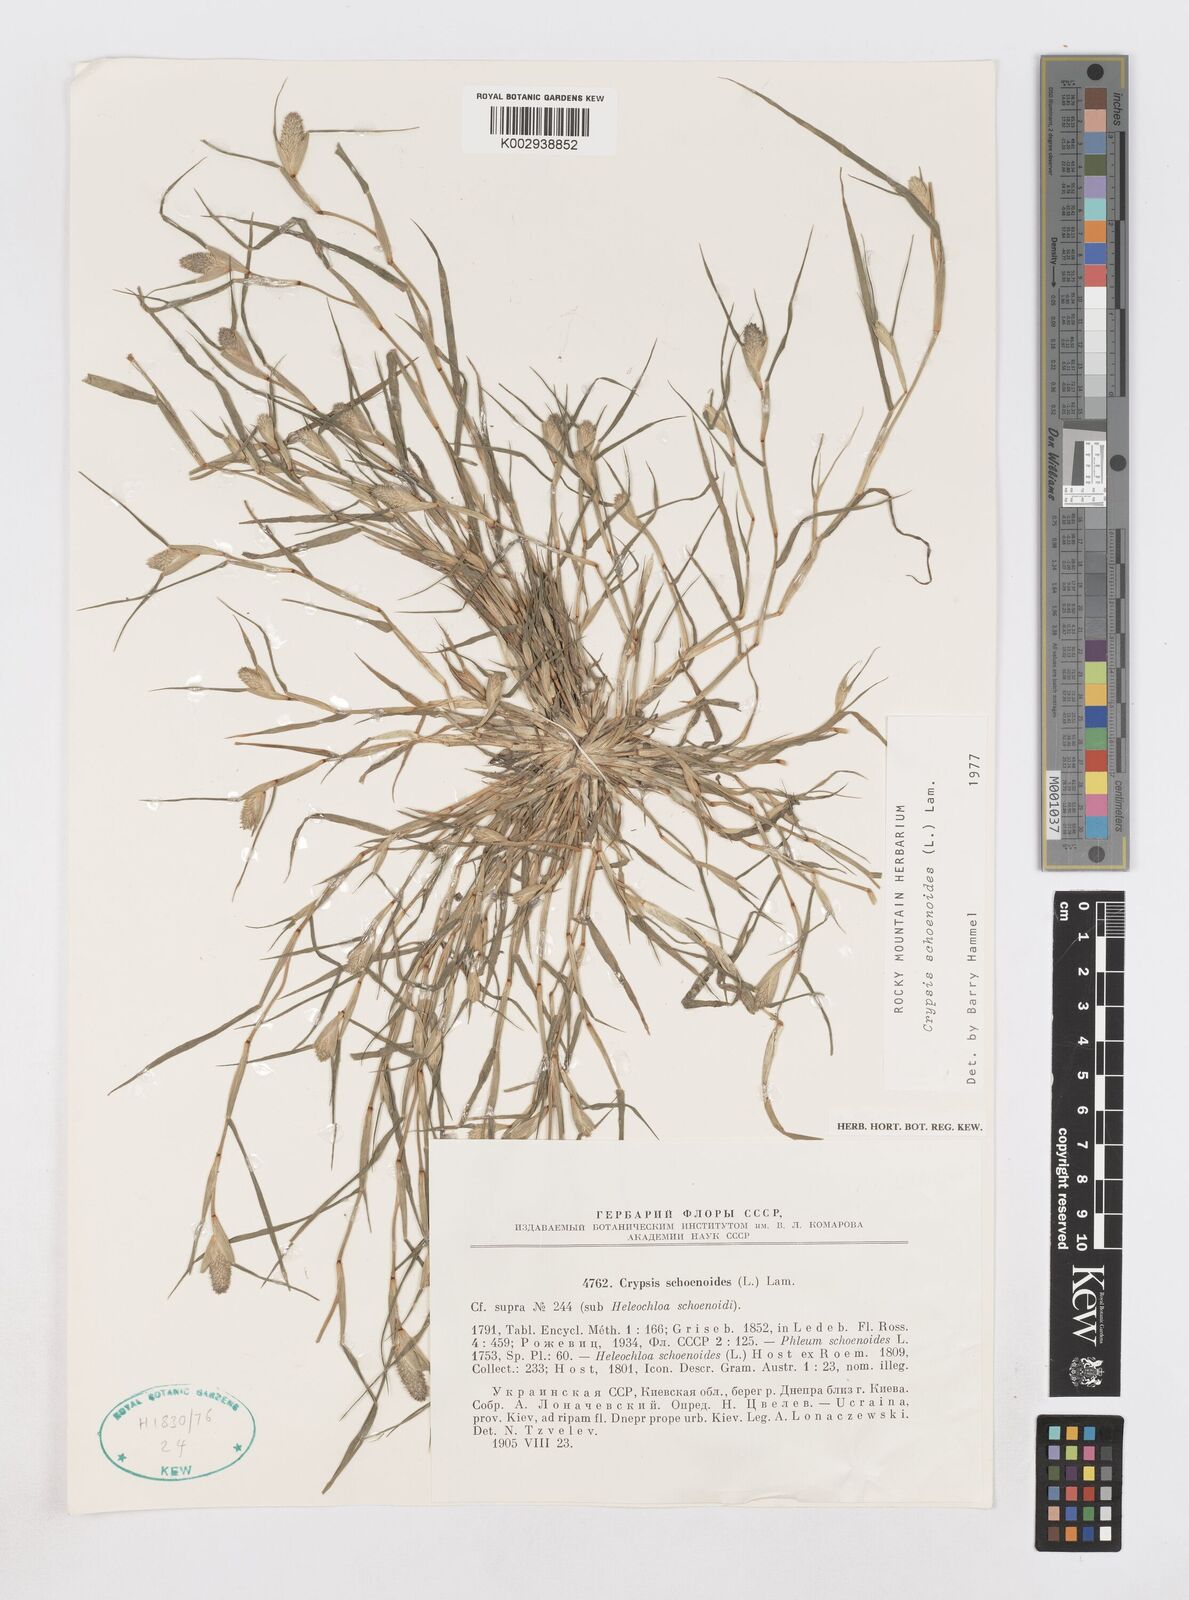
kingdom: Plantae
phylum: Tracheophyta
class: Liliopsida
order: Poales
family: Poaceae
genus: Sporobolus
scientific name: Sporobolus schoenoides
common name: Rush-like timothy
